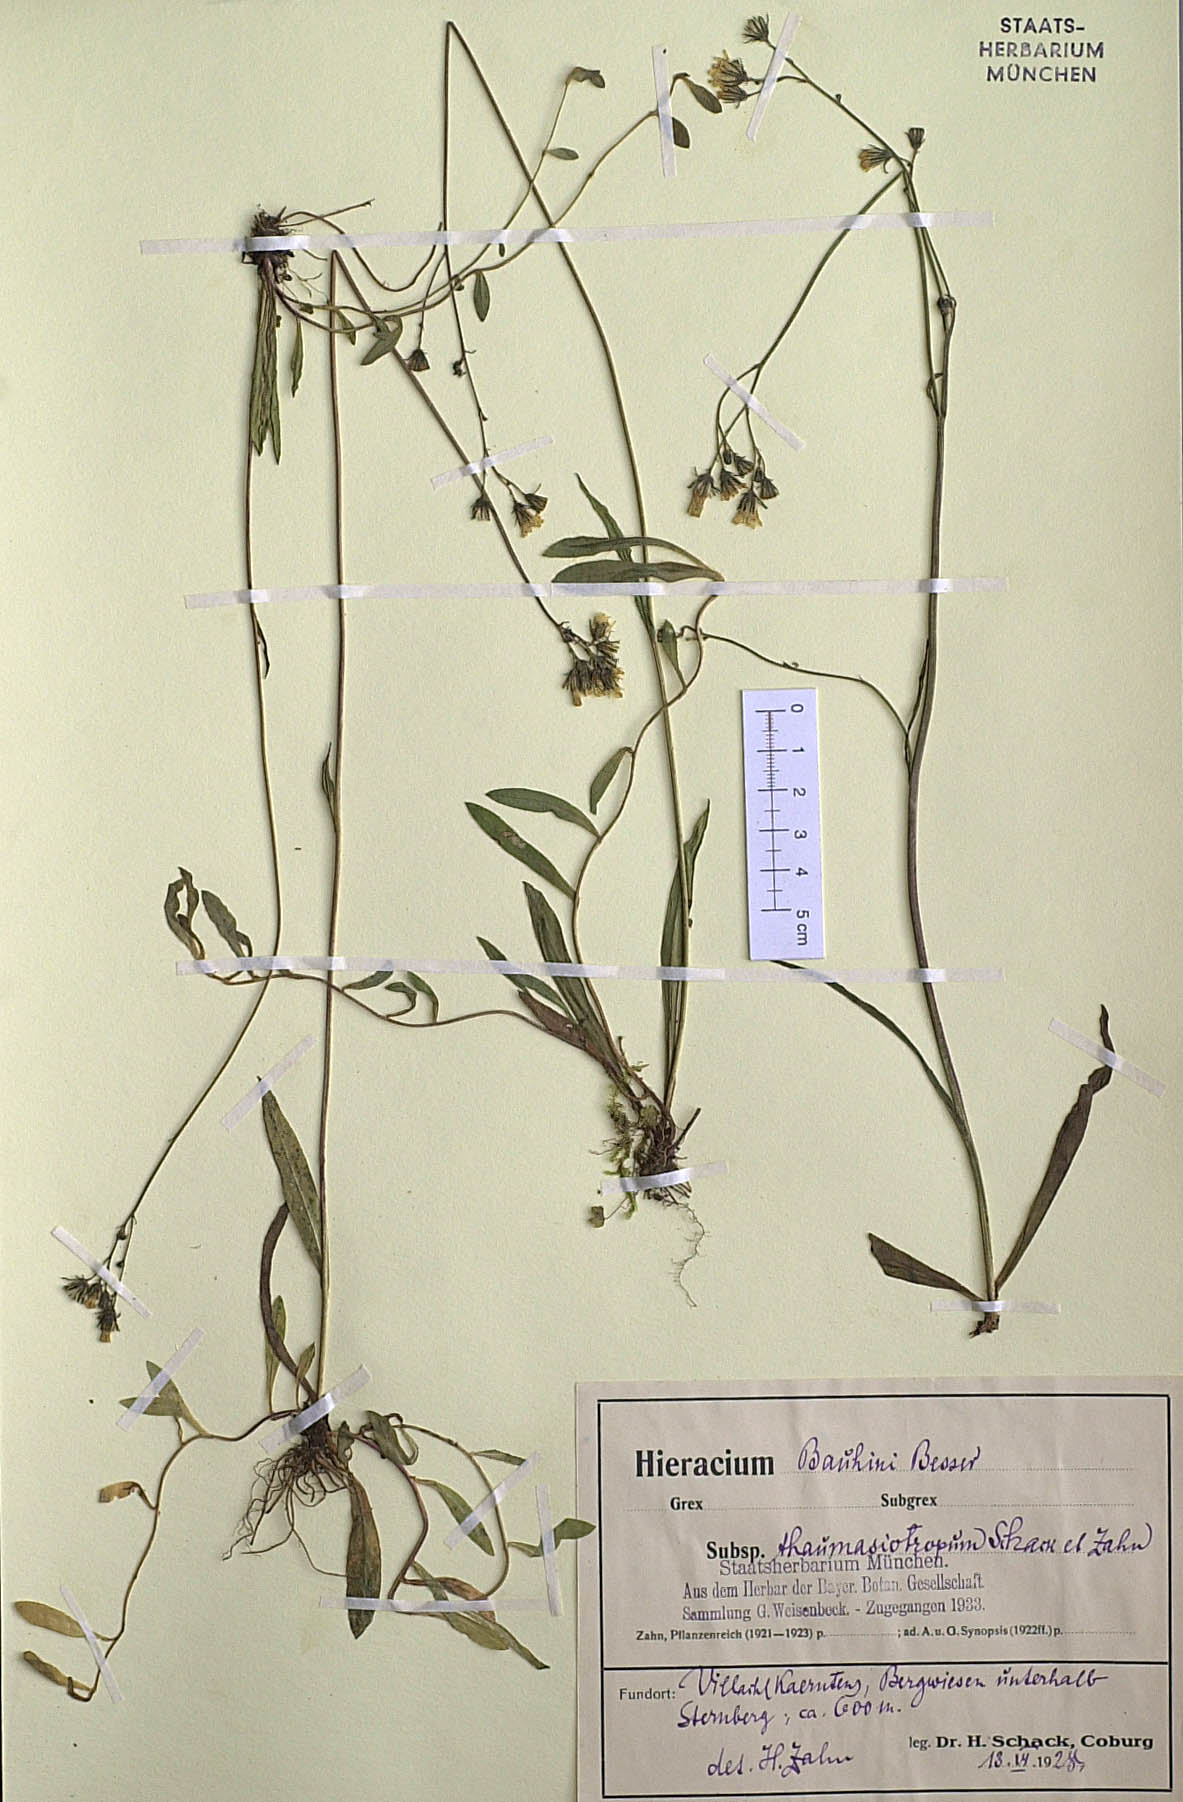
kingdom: Plantae
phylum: Tracheophyta
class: Magnoliopsida
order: Asterales
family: Asteraceae
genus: Pilosella
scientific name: Pilosella bauhini
